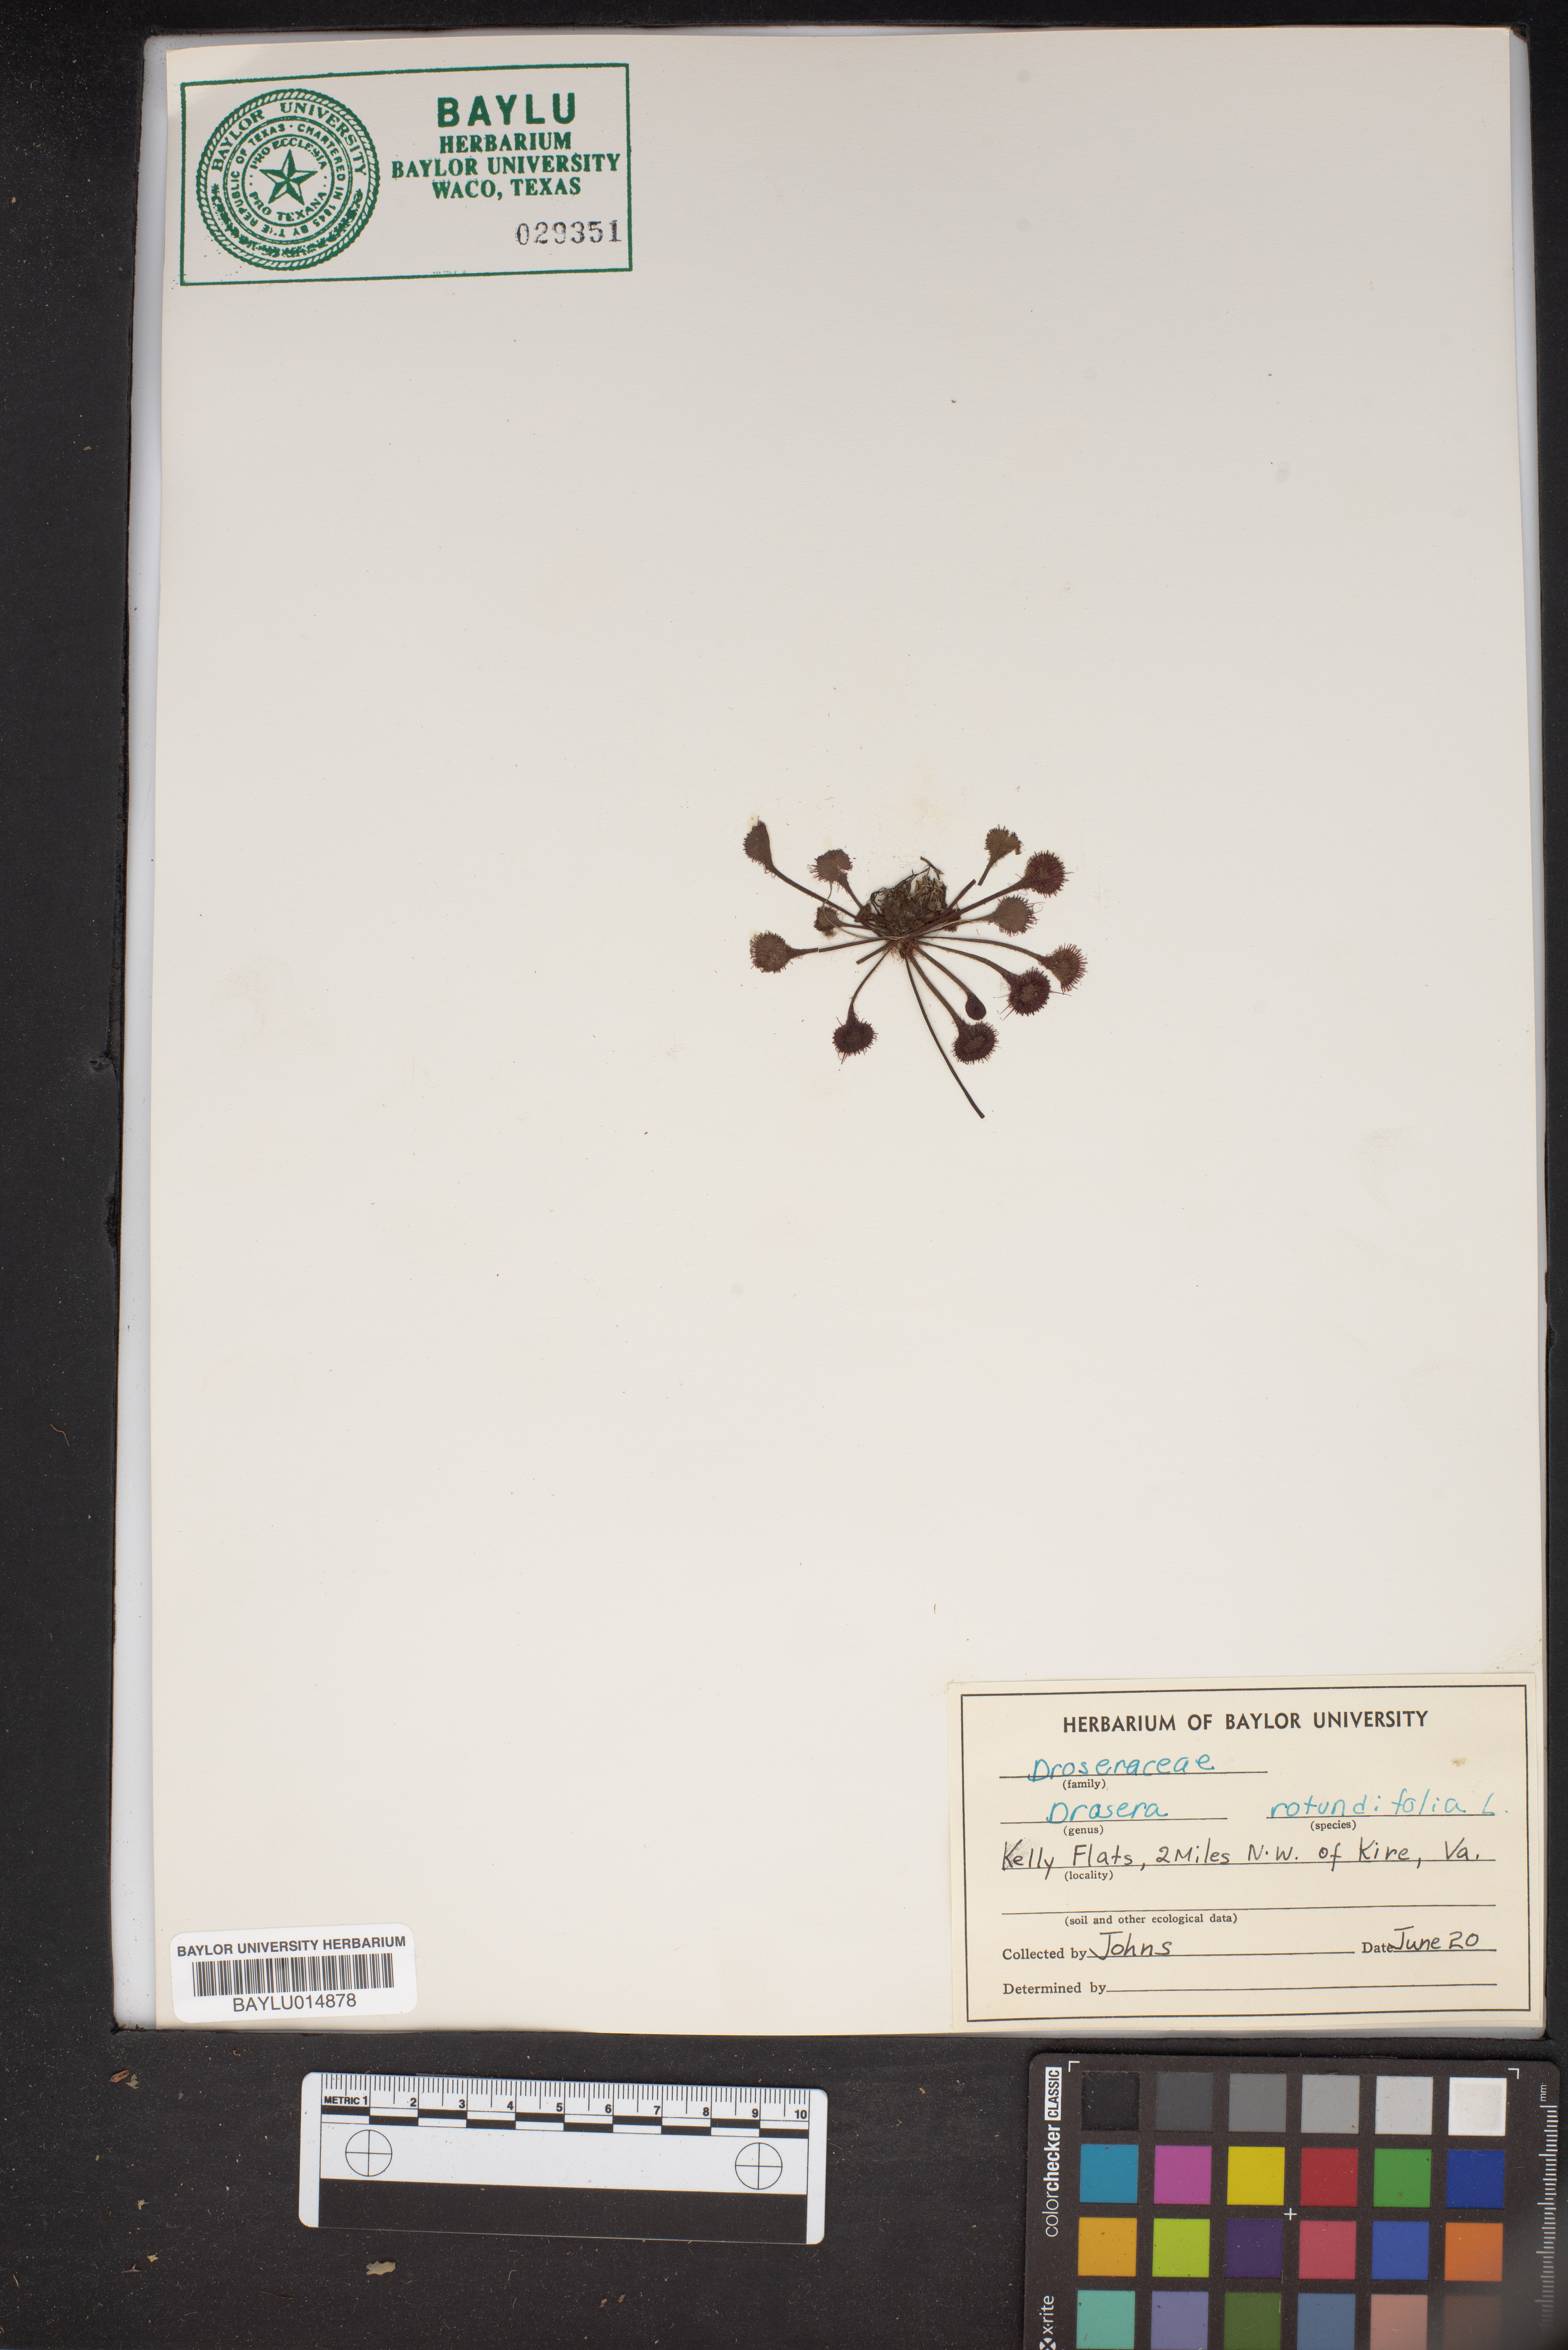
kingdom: Plantae
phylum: Tracheophyta
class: Magnoliopsida
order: Caryophyllales
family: Droseraceae
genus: Drosera
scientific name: Drosera rotundifolia
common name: Round-leaved sundew
